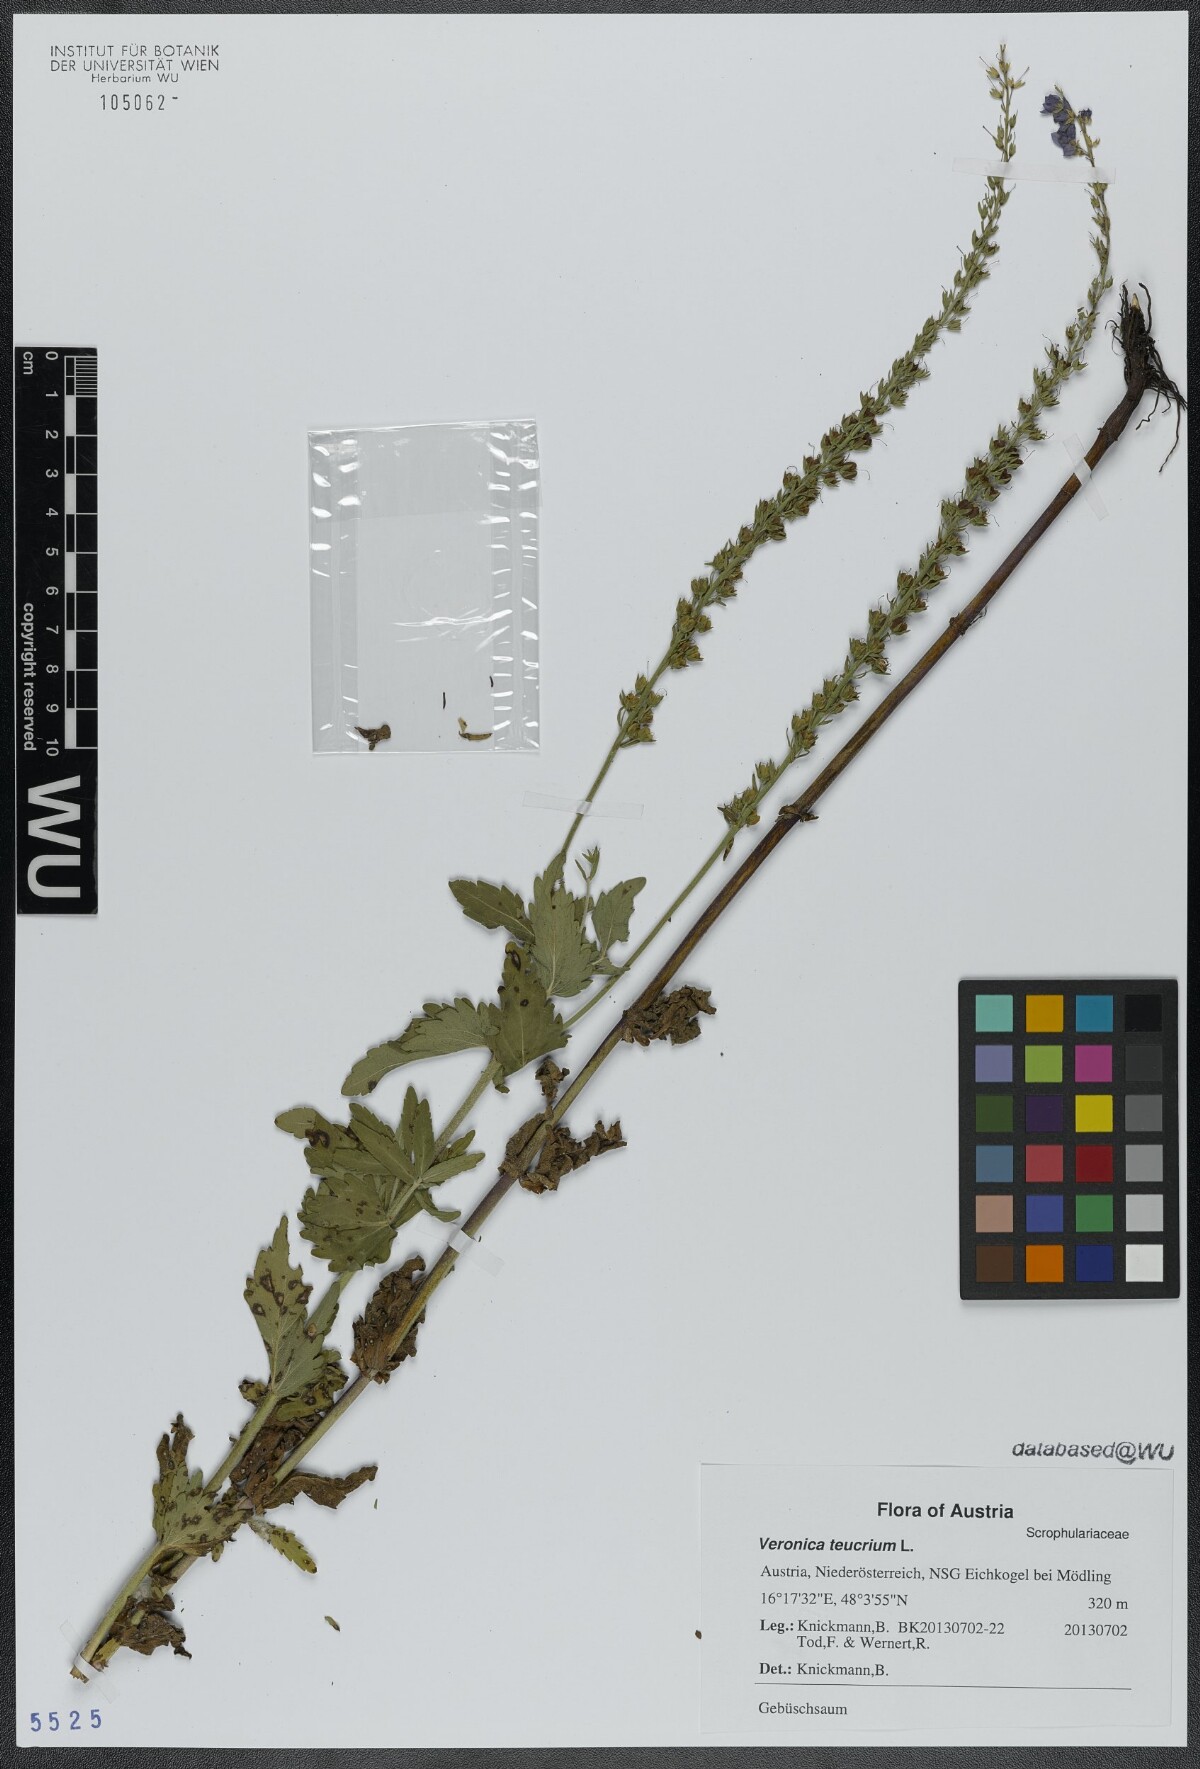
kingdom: Plantae
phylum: Tracheophyta
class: Magnoliopsida
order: Lamiales
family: Plantaginaceae
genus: Veronica
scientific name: Veronica teucrium
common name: Large speedwell
